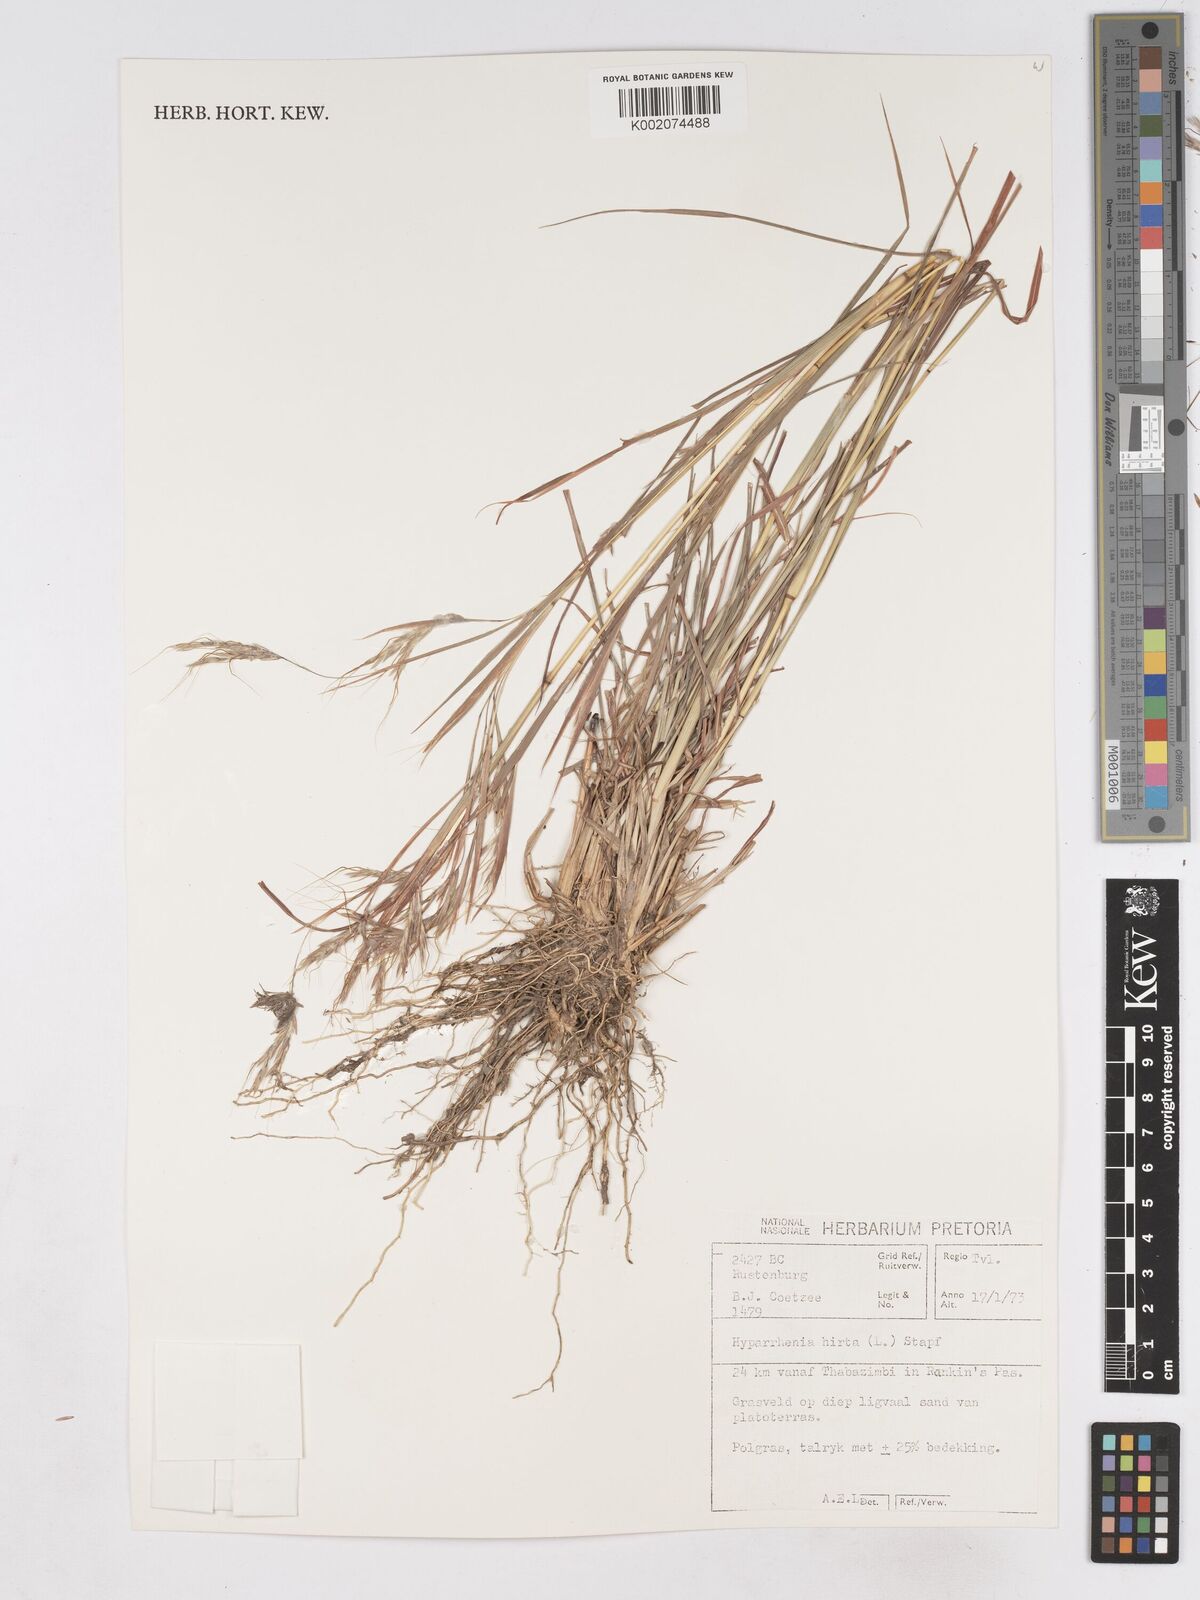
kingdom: Plantae
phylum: Tracheophyta
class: Liliopsida
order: Poales
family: Poaceae
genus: Hyparrhenia
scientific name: Hyparrhenia hirta
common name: Thatching grass
